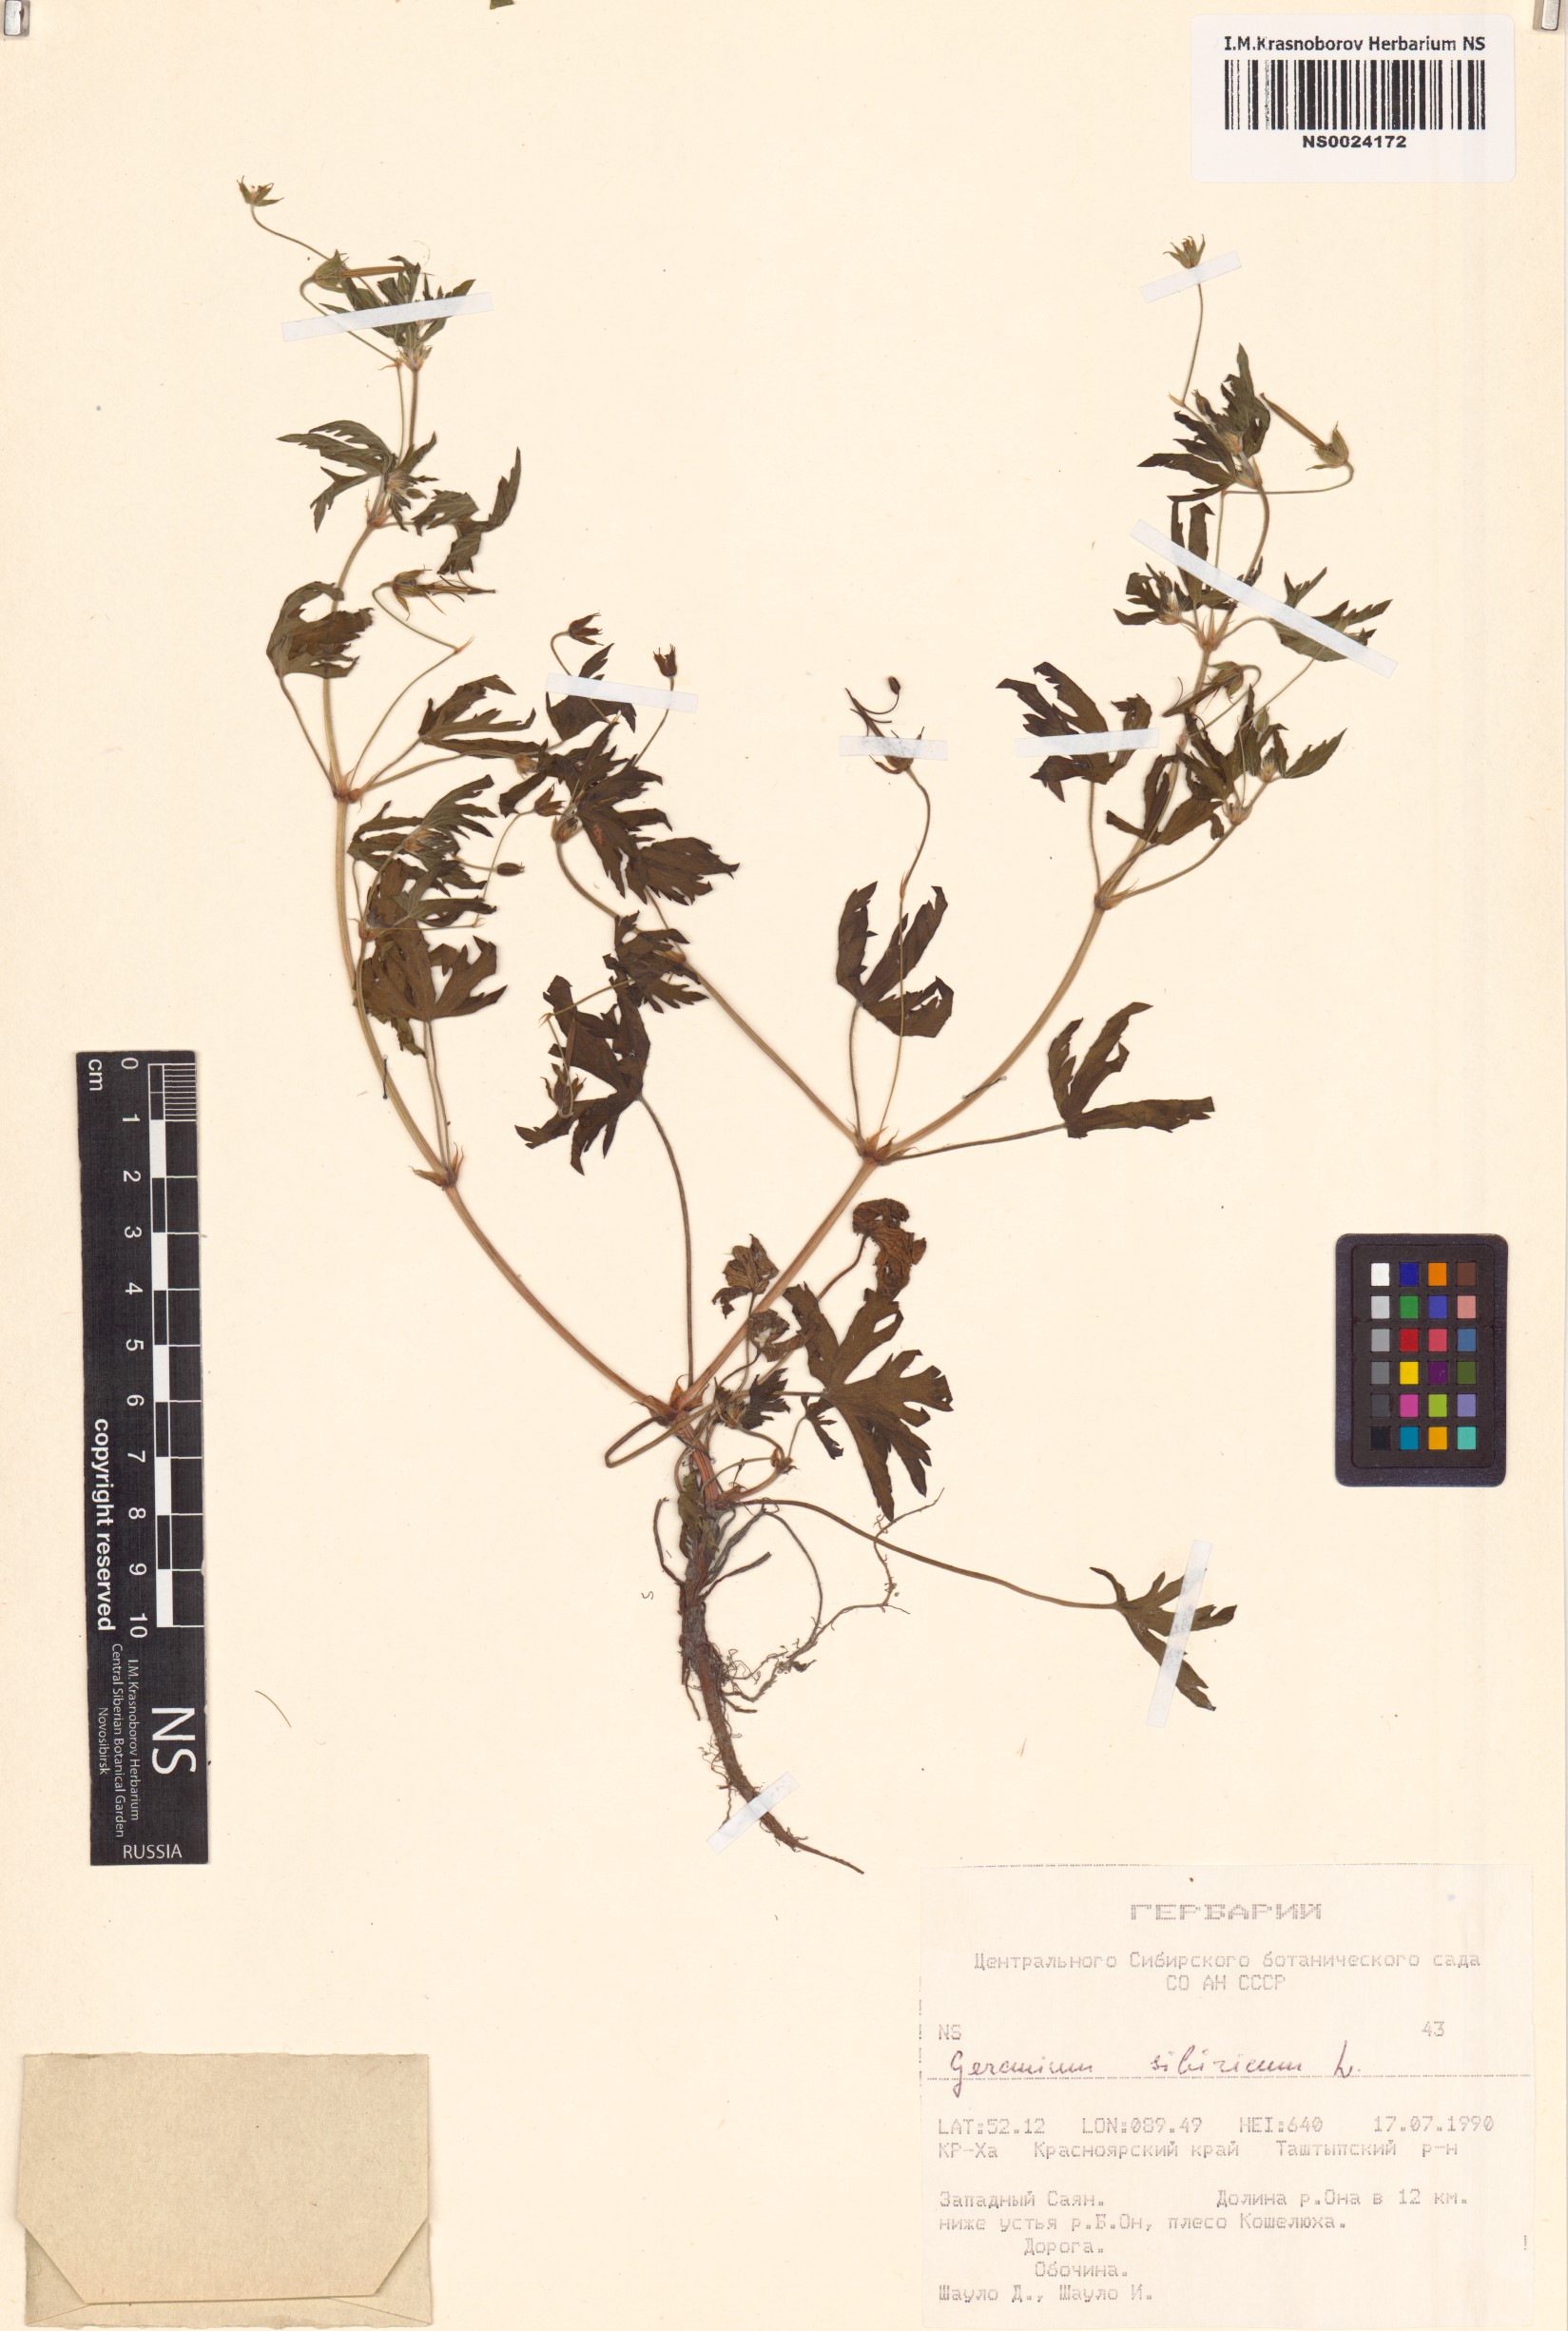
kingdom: Plantae
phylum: Tracheophyta
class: Magnoliopsida
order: Geraniales
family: Geraniaceae
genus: Geranium
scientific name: Geranium sibiricum
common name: Siberian crane's-bill
